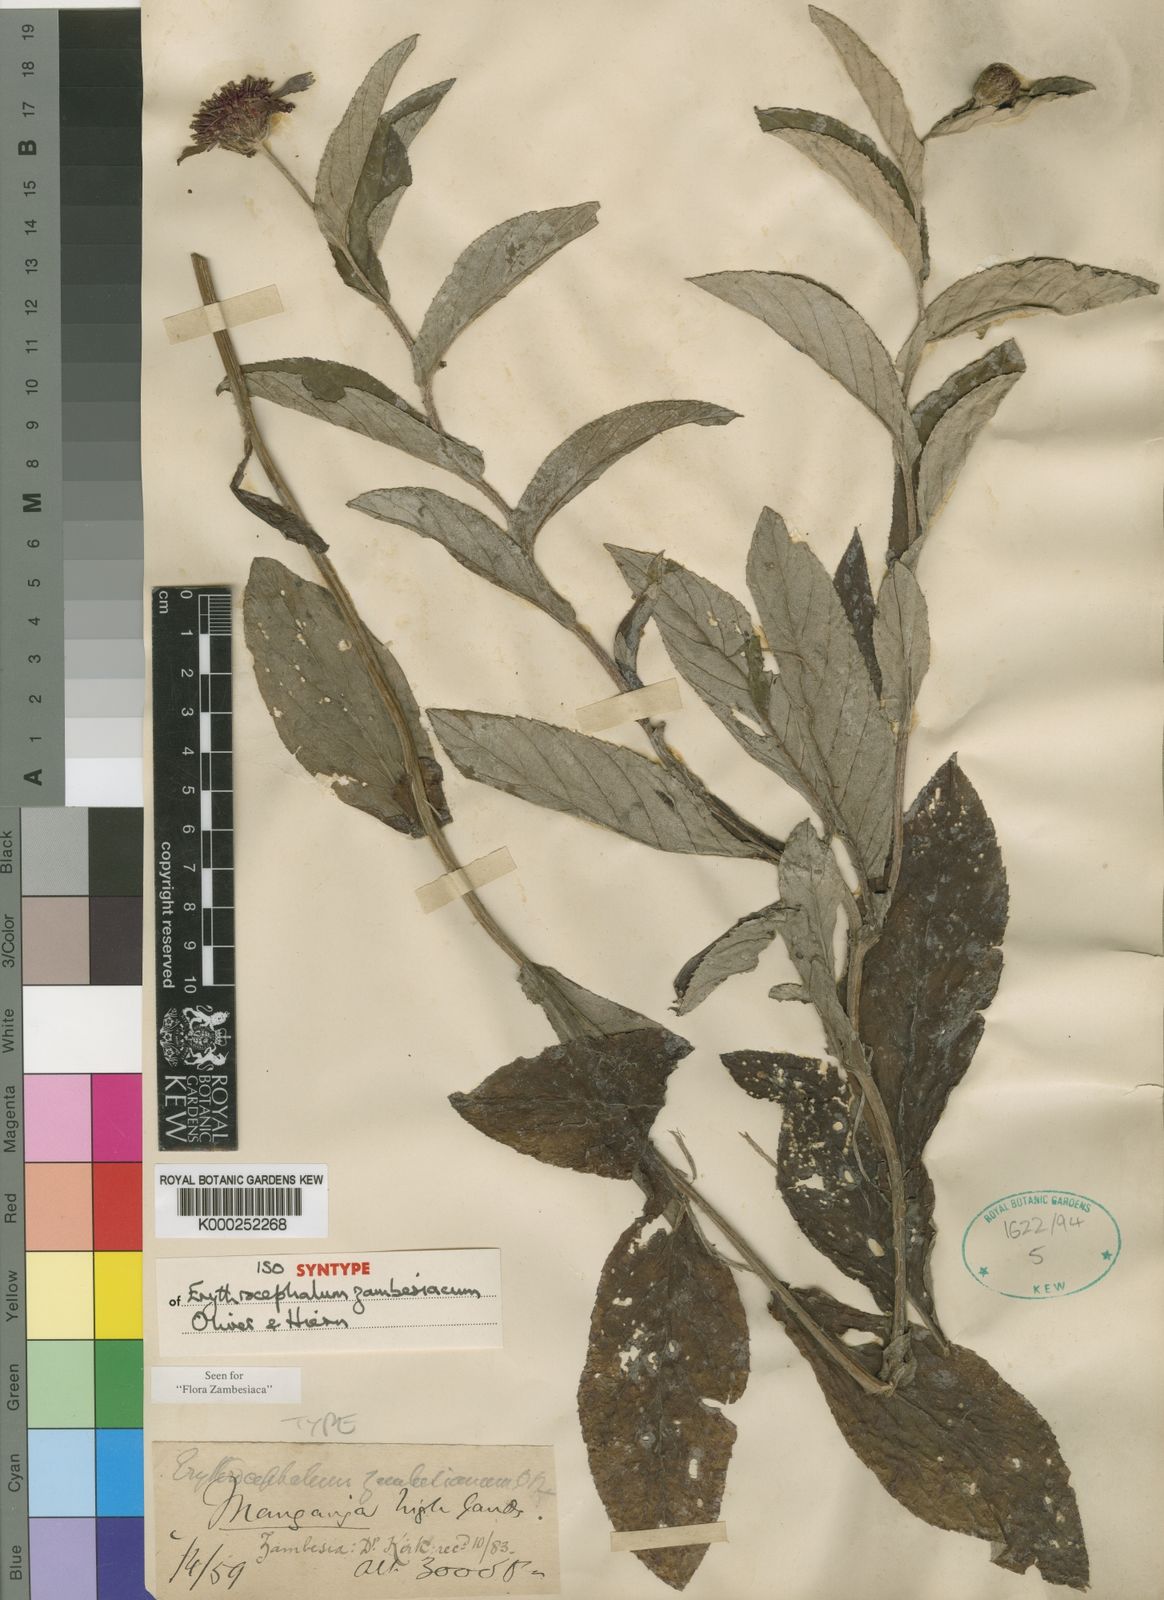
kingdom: Plantae
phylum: Tracheophyta
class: Magnoliopsida
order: Asterales
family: Asteraceae
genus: Erythrocephalum
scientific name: Erythrocephalum longifolium
